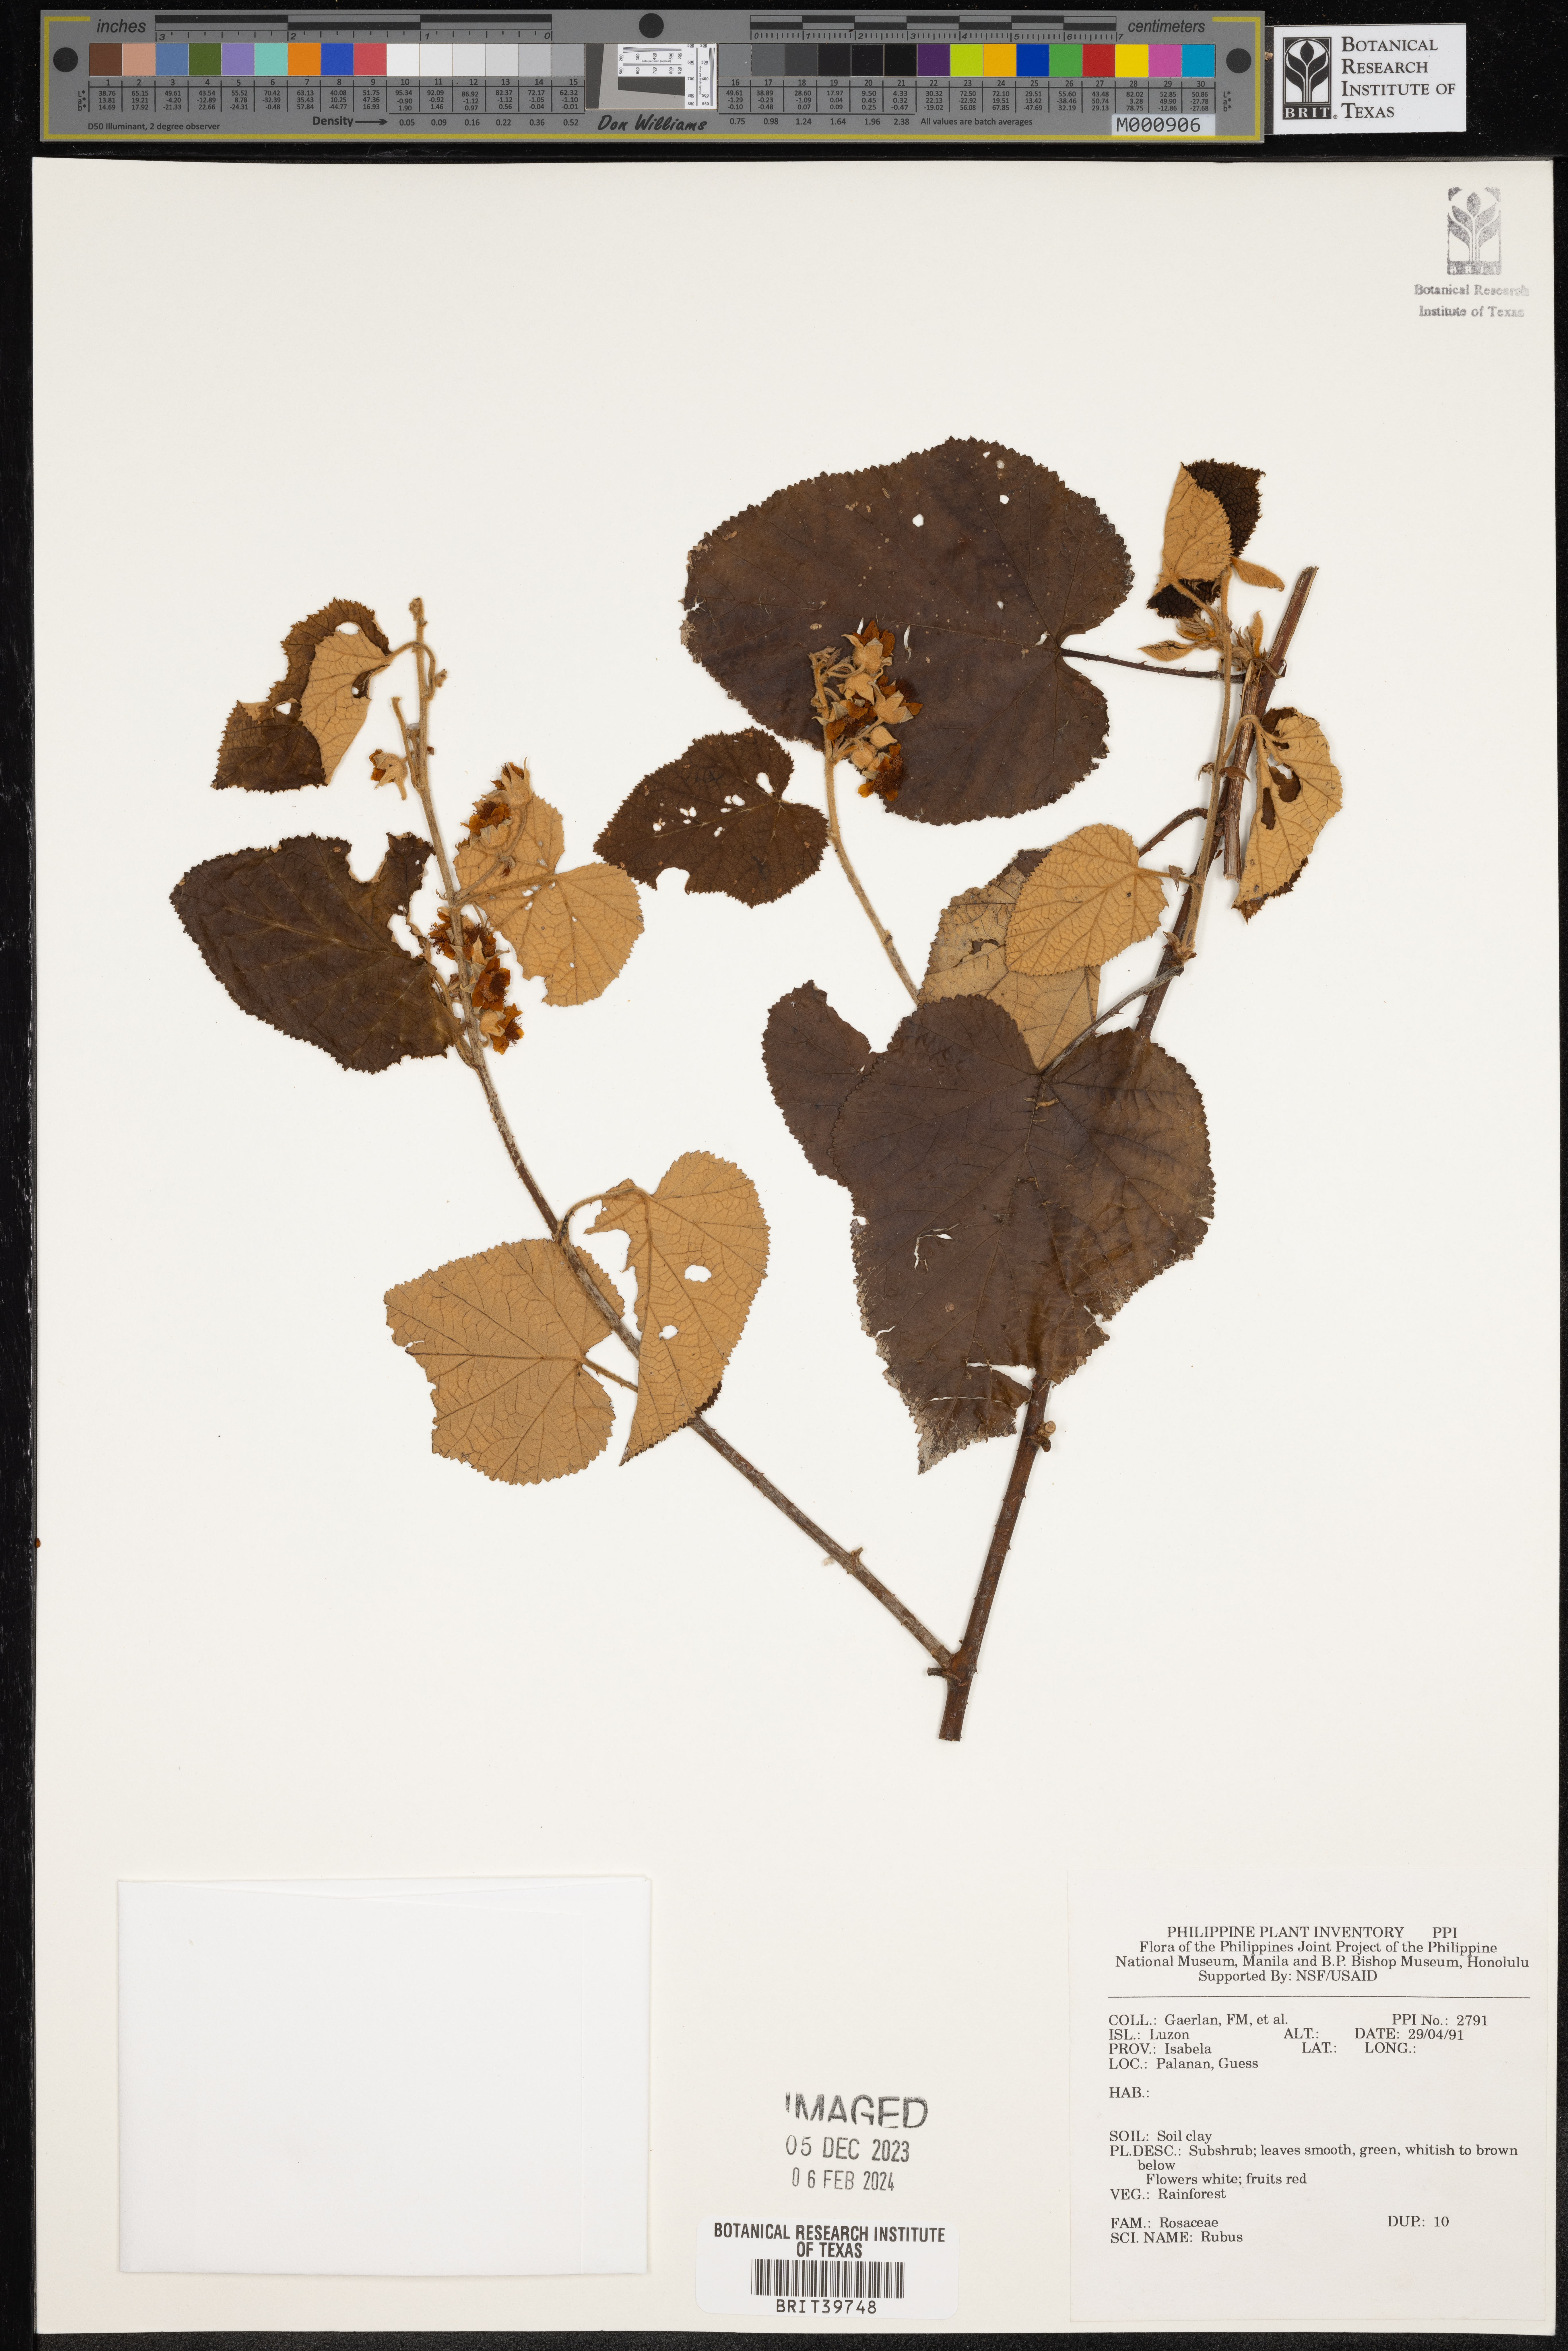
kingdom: Plantae
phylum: Tracheophyta
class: Magnoliopsida
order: Rosales
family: Rosaceae
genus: Rubus
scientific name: Rubus
